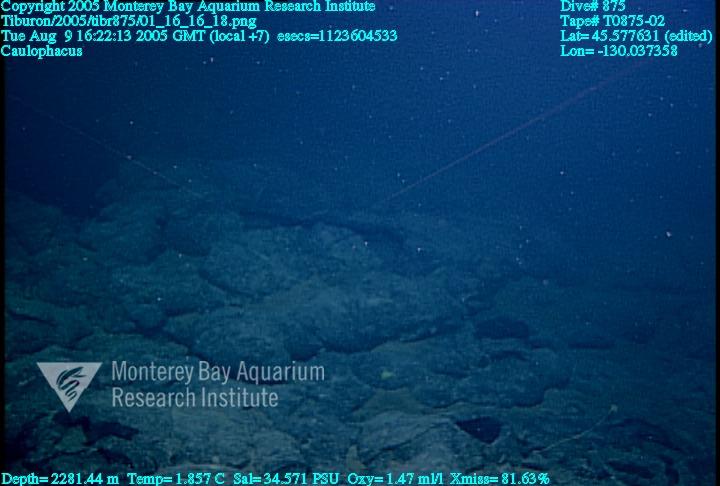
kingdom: Animalia
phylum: Porifera
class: Hexactinellida
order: Lyssacinosida
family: Rossellidae
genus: Caulophacus
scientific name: Caulophacus
